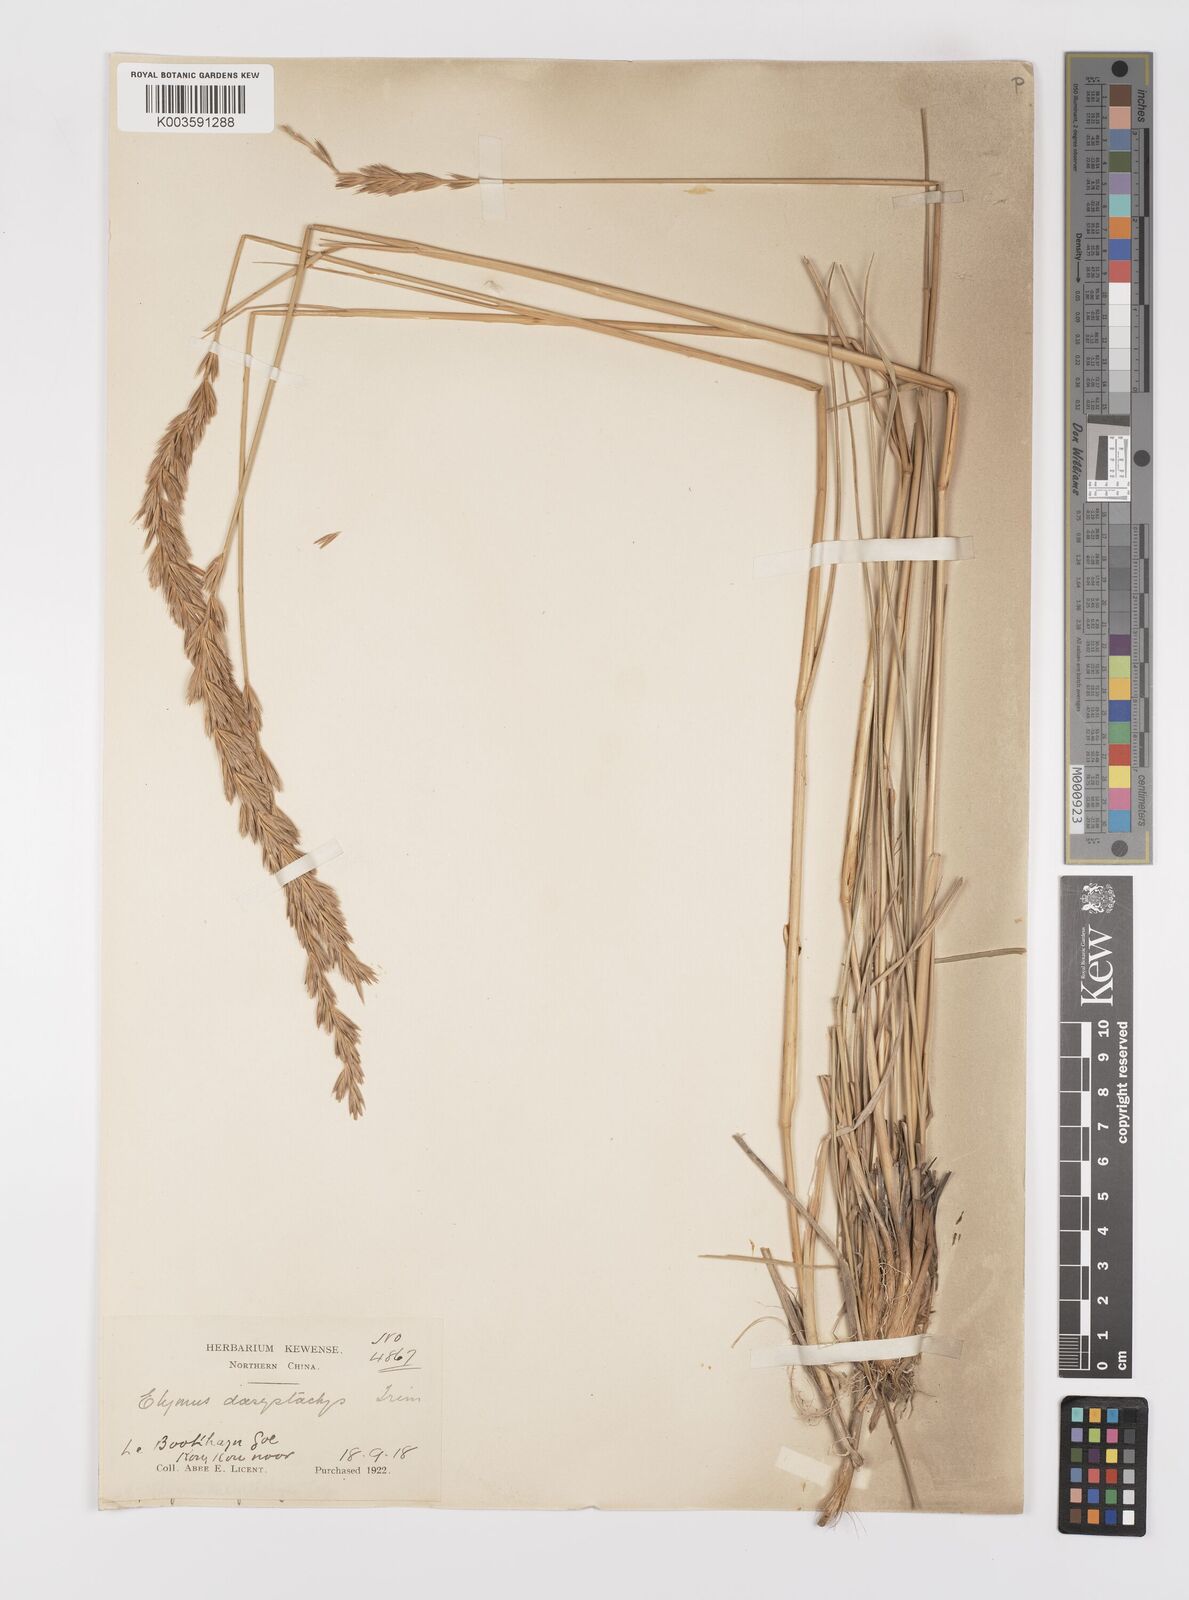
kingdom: Plantae
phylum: Tracheophyta
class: Liliopsida
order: Poales
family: Poaceae
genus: Leymus
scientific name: Leymus secalinus
